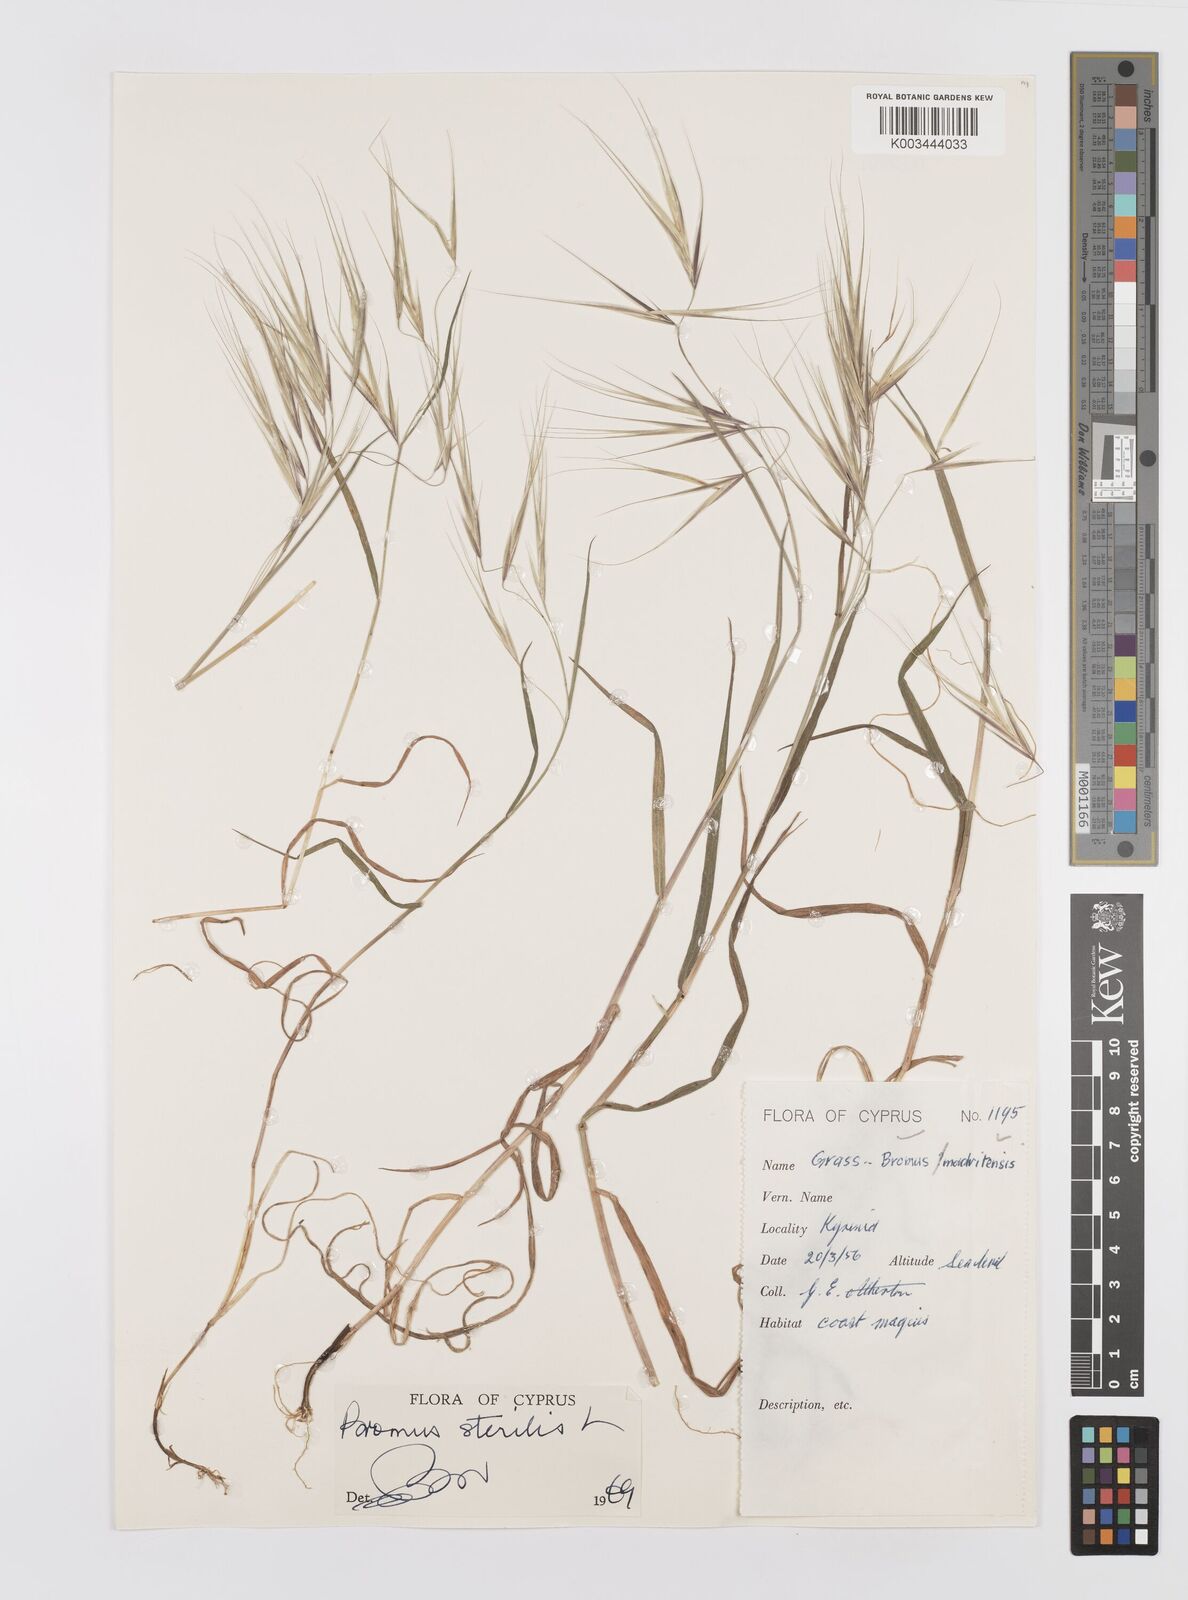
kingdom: Plantae
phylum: Tracheophyta
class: Liliopsida
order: Poales
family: Poaceae
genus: Bromus
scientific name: Bromus sterilis
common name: Poverty brome
